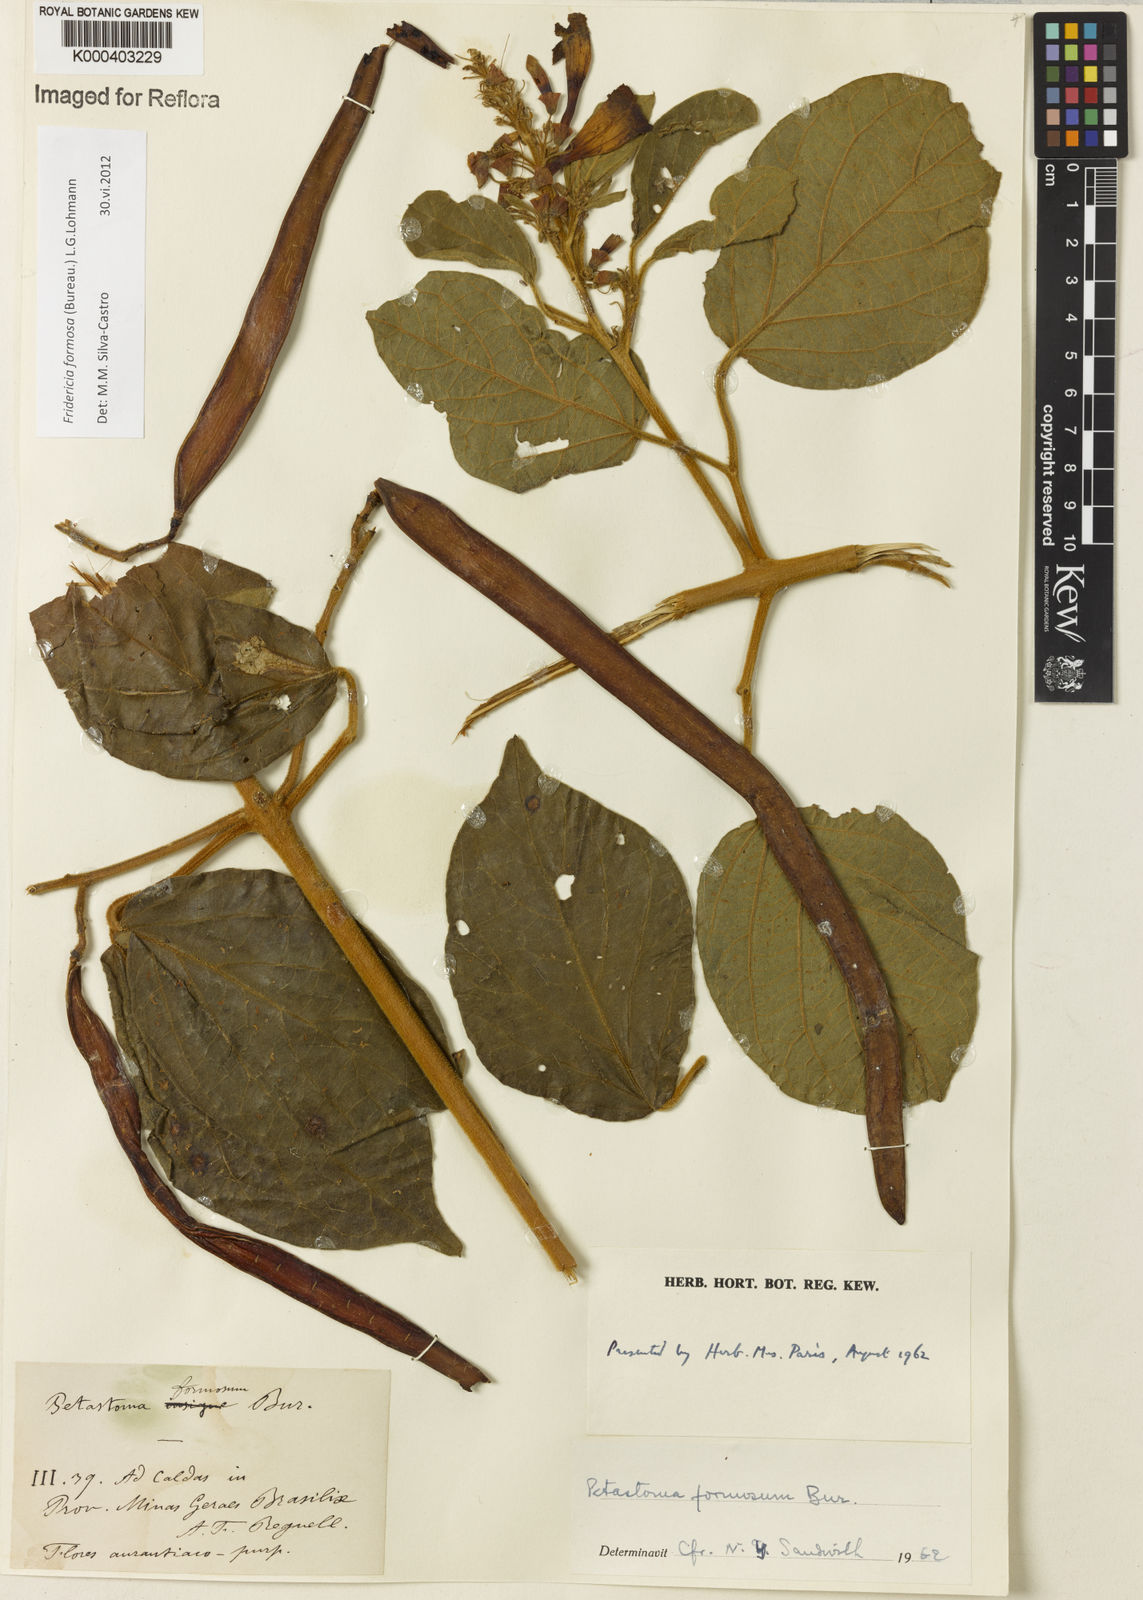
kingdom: Plantae
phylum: Tracheophyta
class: Magnoliopsida
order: Lamiales
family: Bignoniaceae
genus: Fridericia
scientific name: Fridericia formosa
